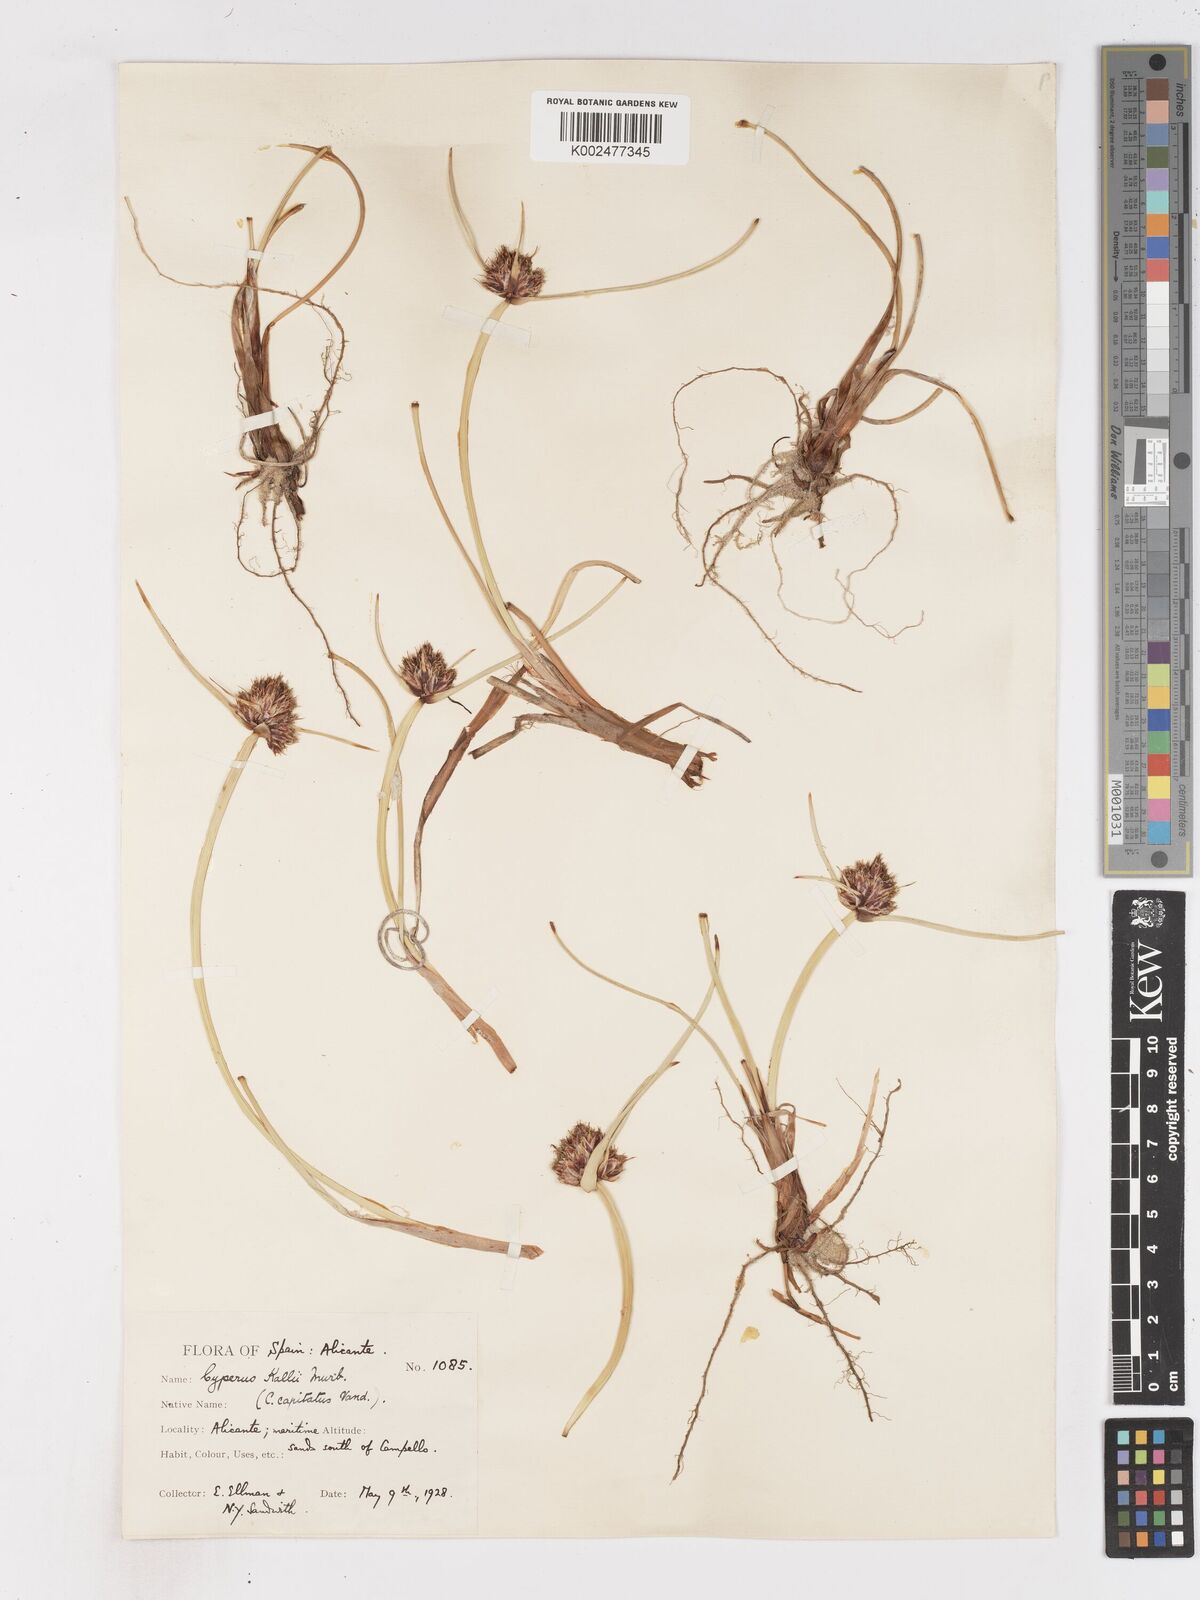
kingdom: Plantae
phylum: Tracheophyta
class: Liliopsida
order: Poales
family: Cyperaceae
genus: Cyperus
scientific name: Cyperus capitatus
